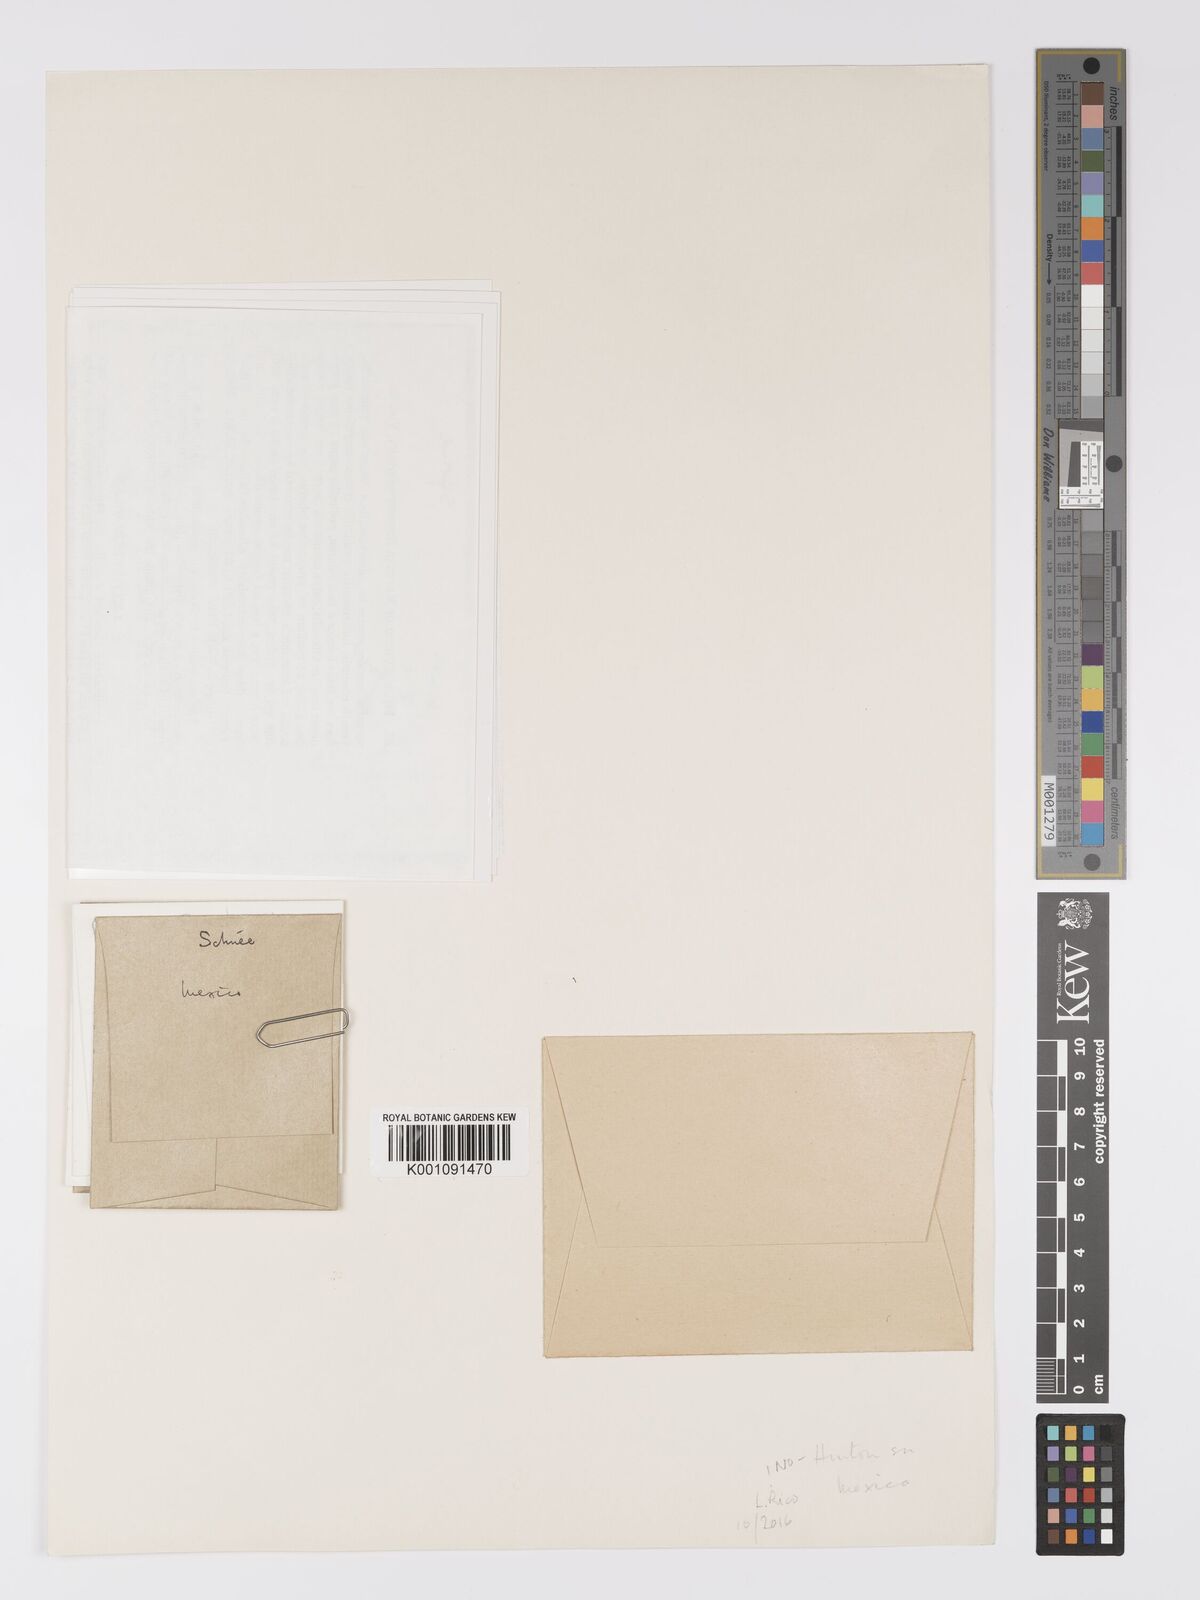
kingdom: Plantae
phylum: Tracheophyta
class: Magnoliopsida
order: Lamiales
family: Lentibulariaceae
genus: Utricularia
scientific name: Utricularia livida
